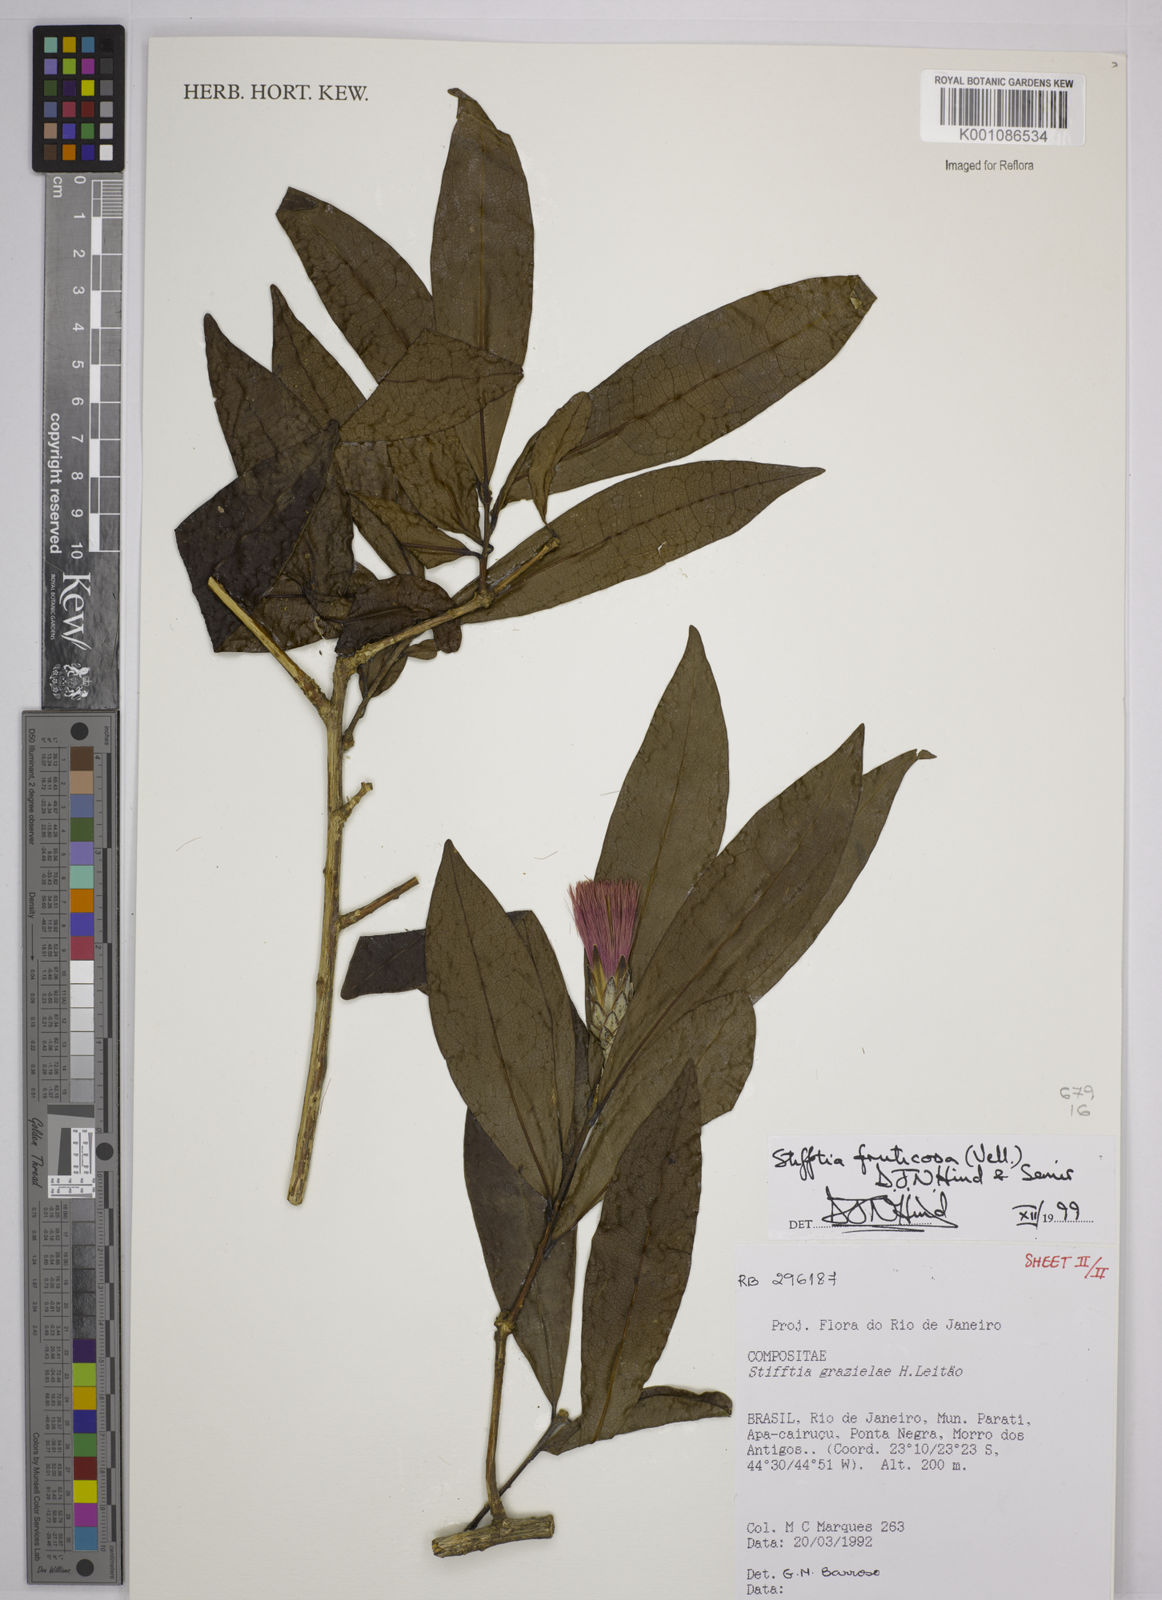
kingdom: Plantae
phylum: Tracheophyta
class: Magnoliopsida
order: Asterales
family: Asteraceae
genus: Stifftia
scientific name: Stifftia fruticosa
